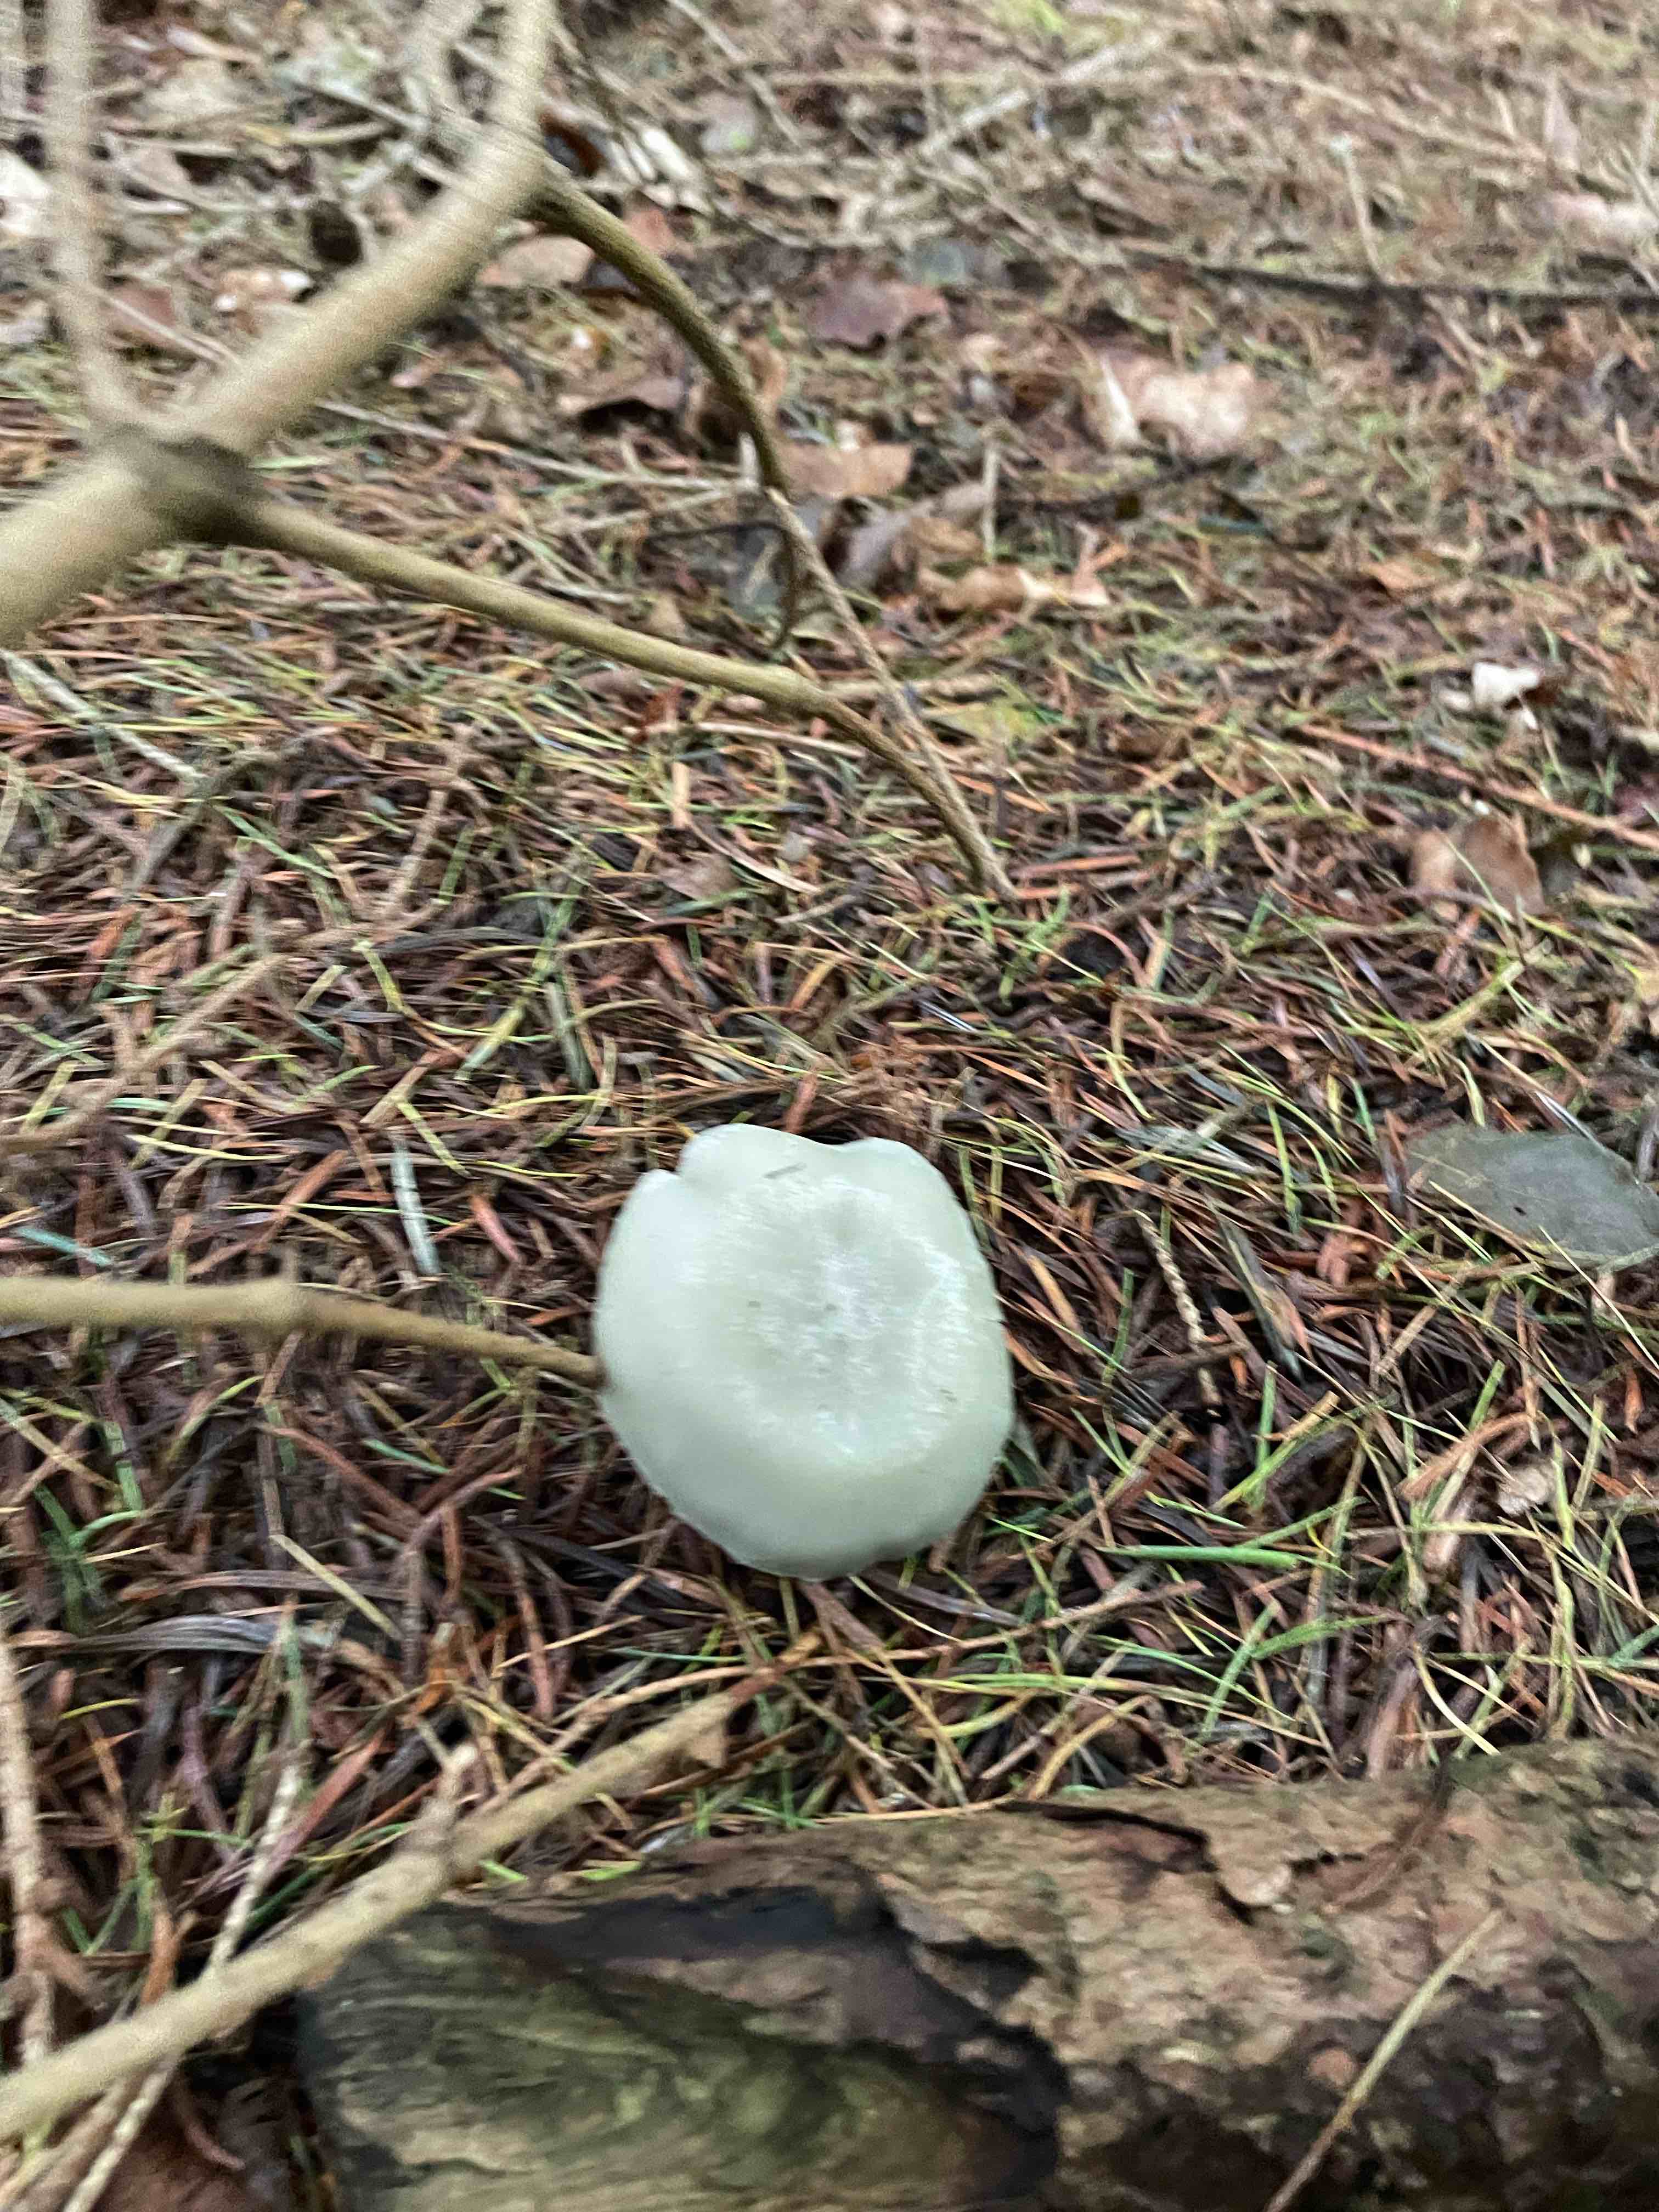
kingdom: Fungi
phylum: Basidiomycota
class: Agaricomycetes
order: Agaricales
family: Tricholomataceae
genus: Clitocybe
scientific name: Clitocybe odora
